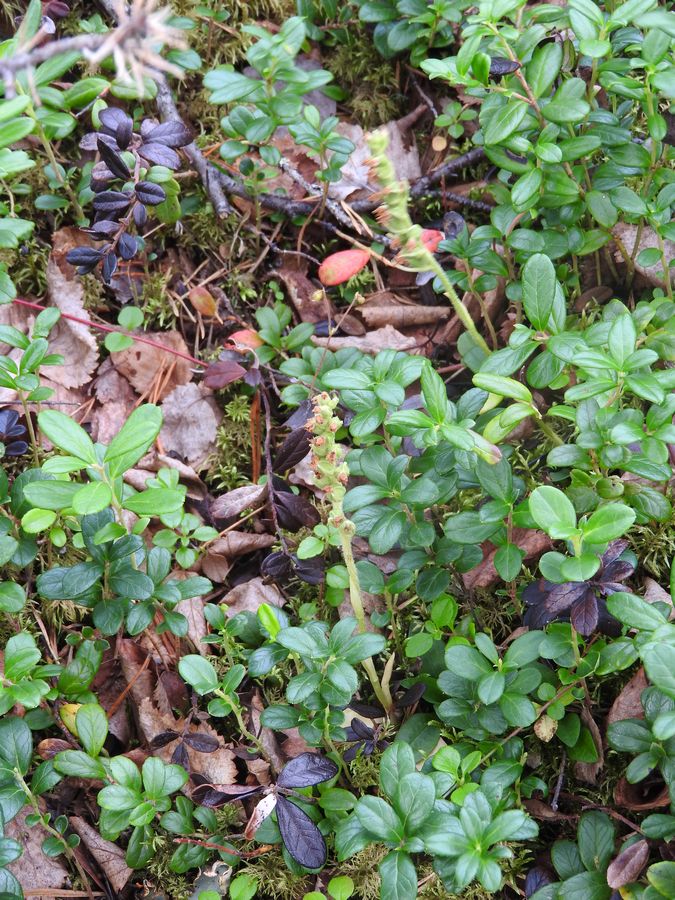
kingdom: Plantae
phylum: Tracheophyta
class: Liliopsida
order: Asparagales
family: Orchidaceae
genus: Goodyera
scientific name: Goodyera repens
